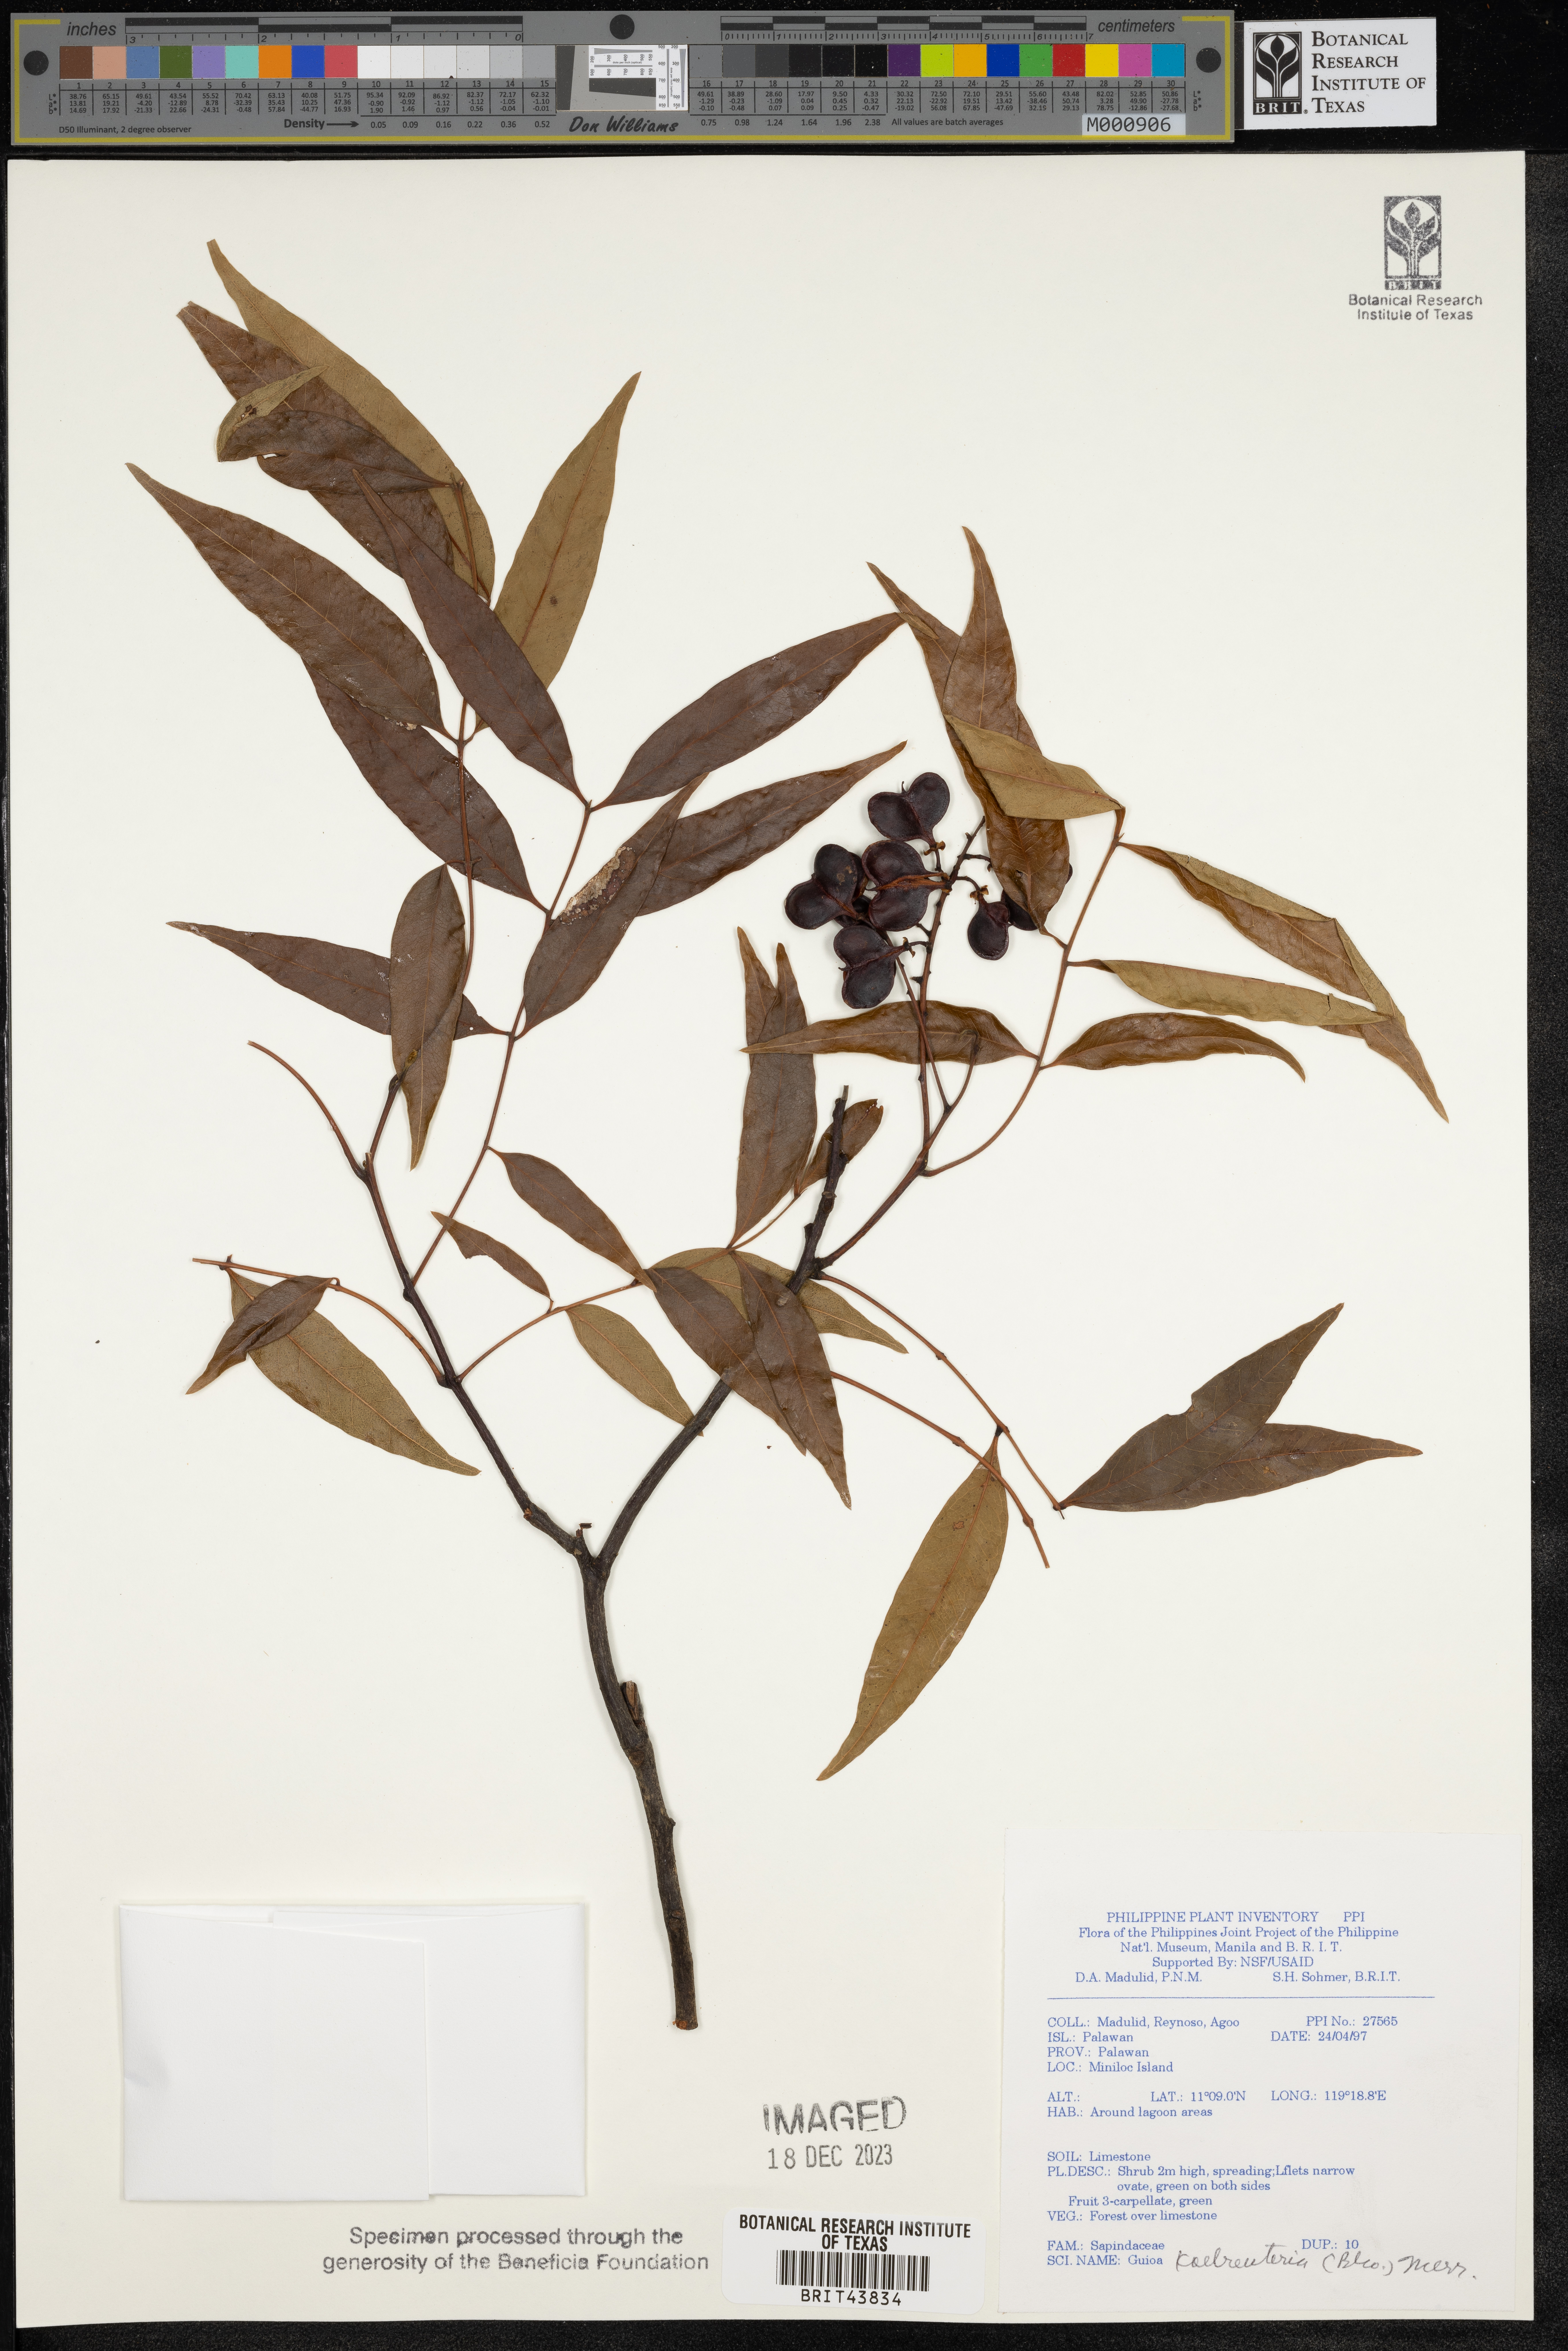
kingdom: Plantae
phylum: Tracheophyta
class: Magnoliopsida
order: Sapindales
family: Sapindaceae
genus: Guioa
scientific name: Guioa koelreuteria
